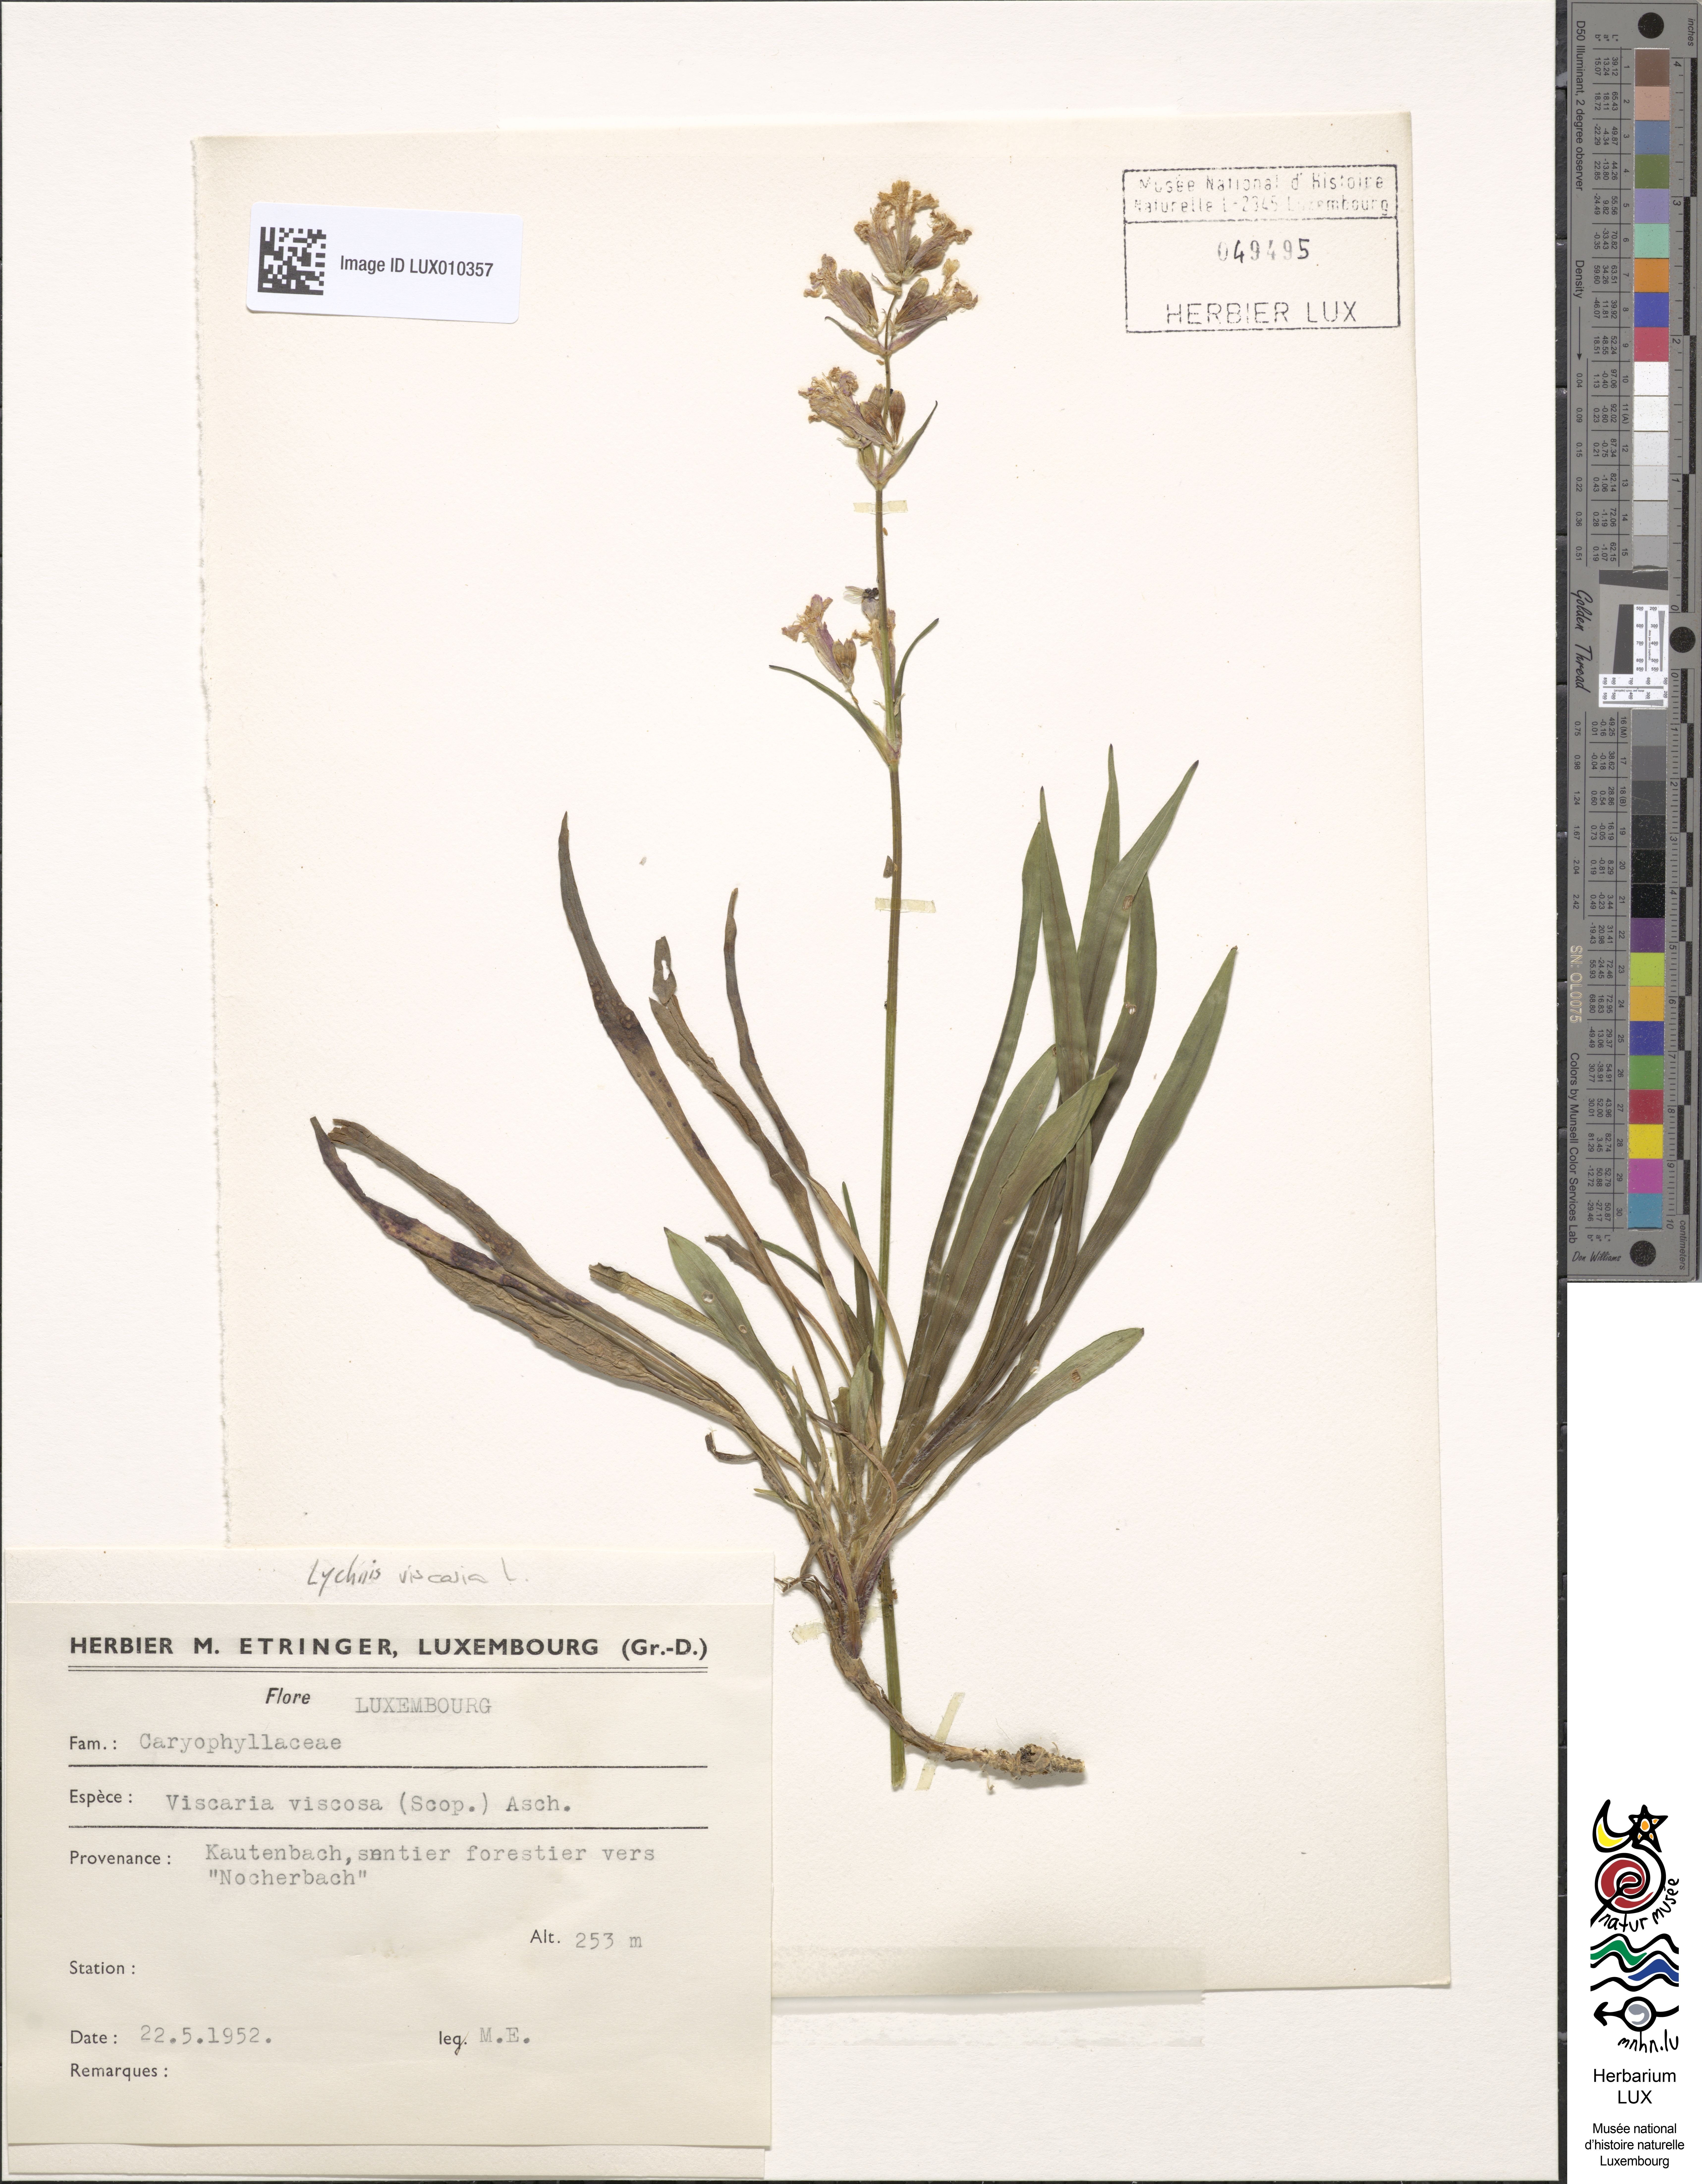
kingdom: Plantae
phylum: Tracheophyta
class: Magnoliopsida
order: Caryophyllales
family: Caryophyllaceae
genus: Viscaria
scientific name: Viscaria vulgaris
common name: Clammy campion
